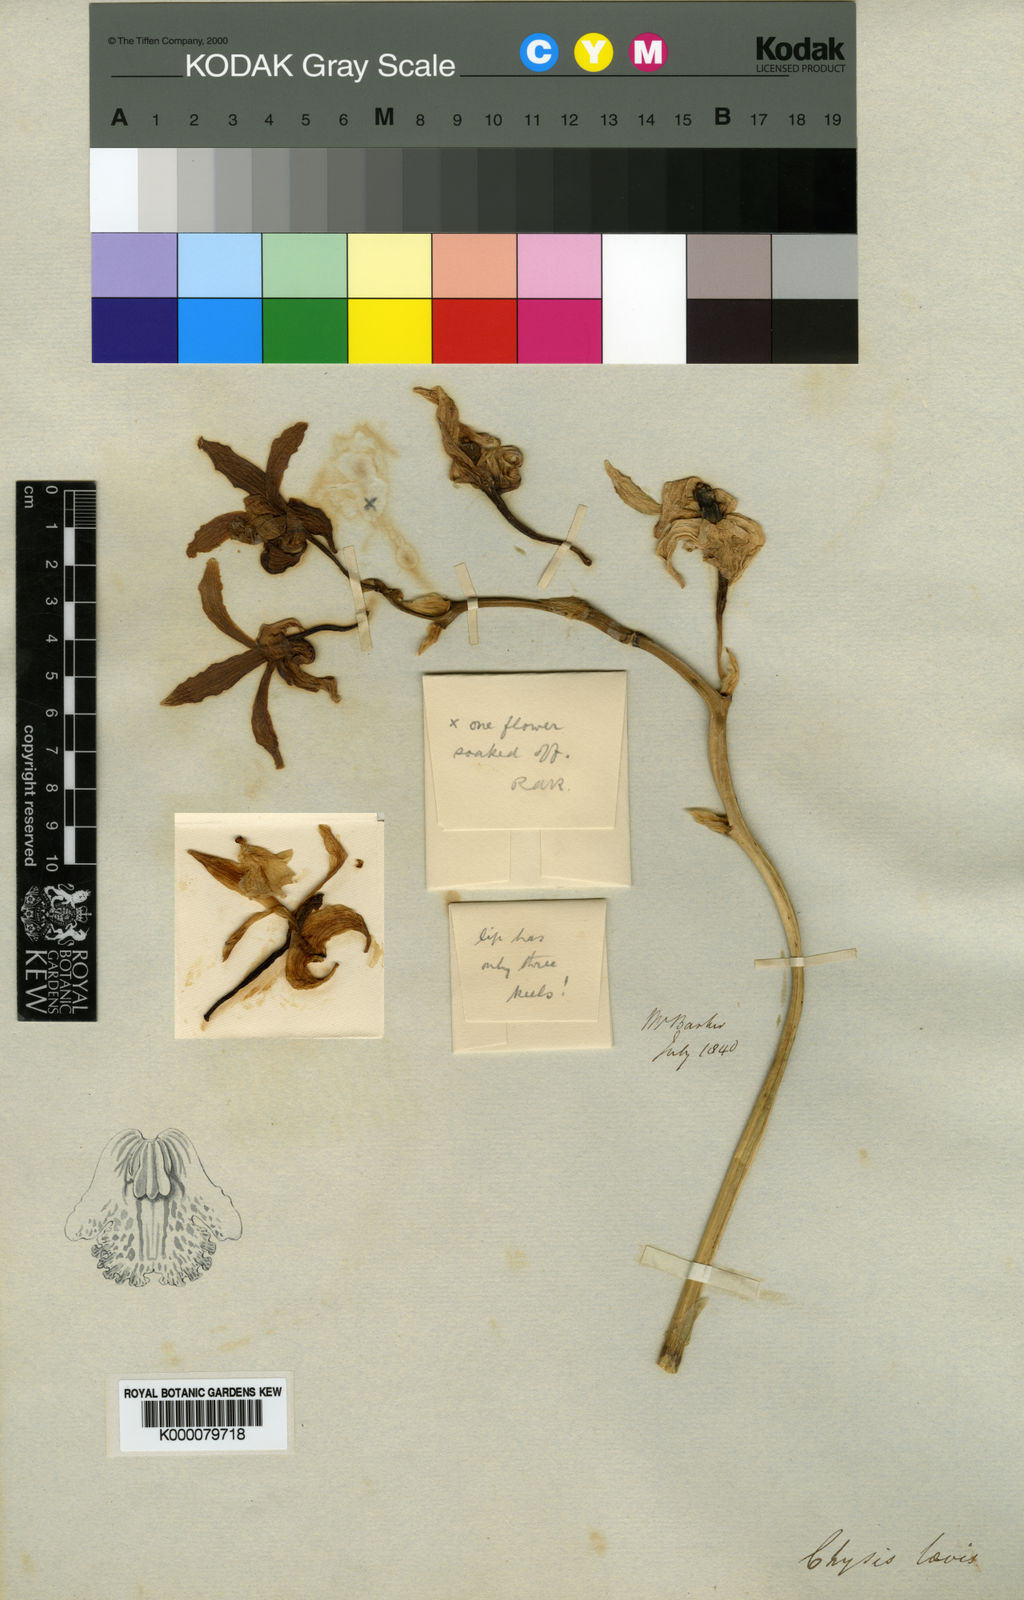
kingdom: Plantae
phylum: Tracheophyta
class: Liliopsida
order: Asparagales
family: Orchidaceae
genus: Chysis
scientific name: Chysis laevis
